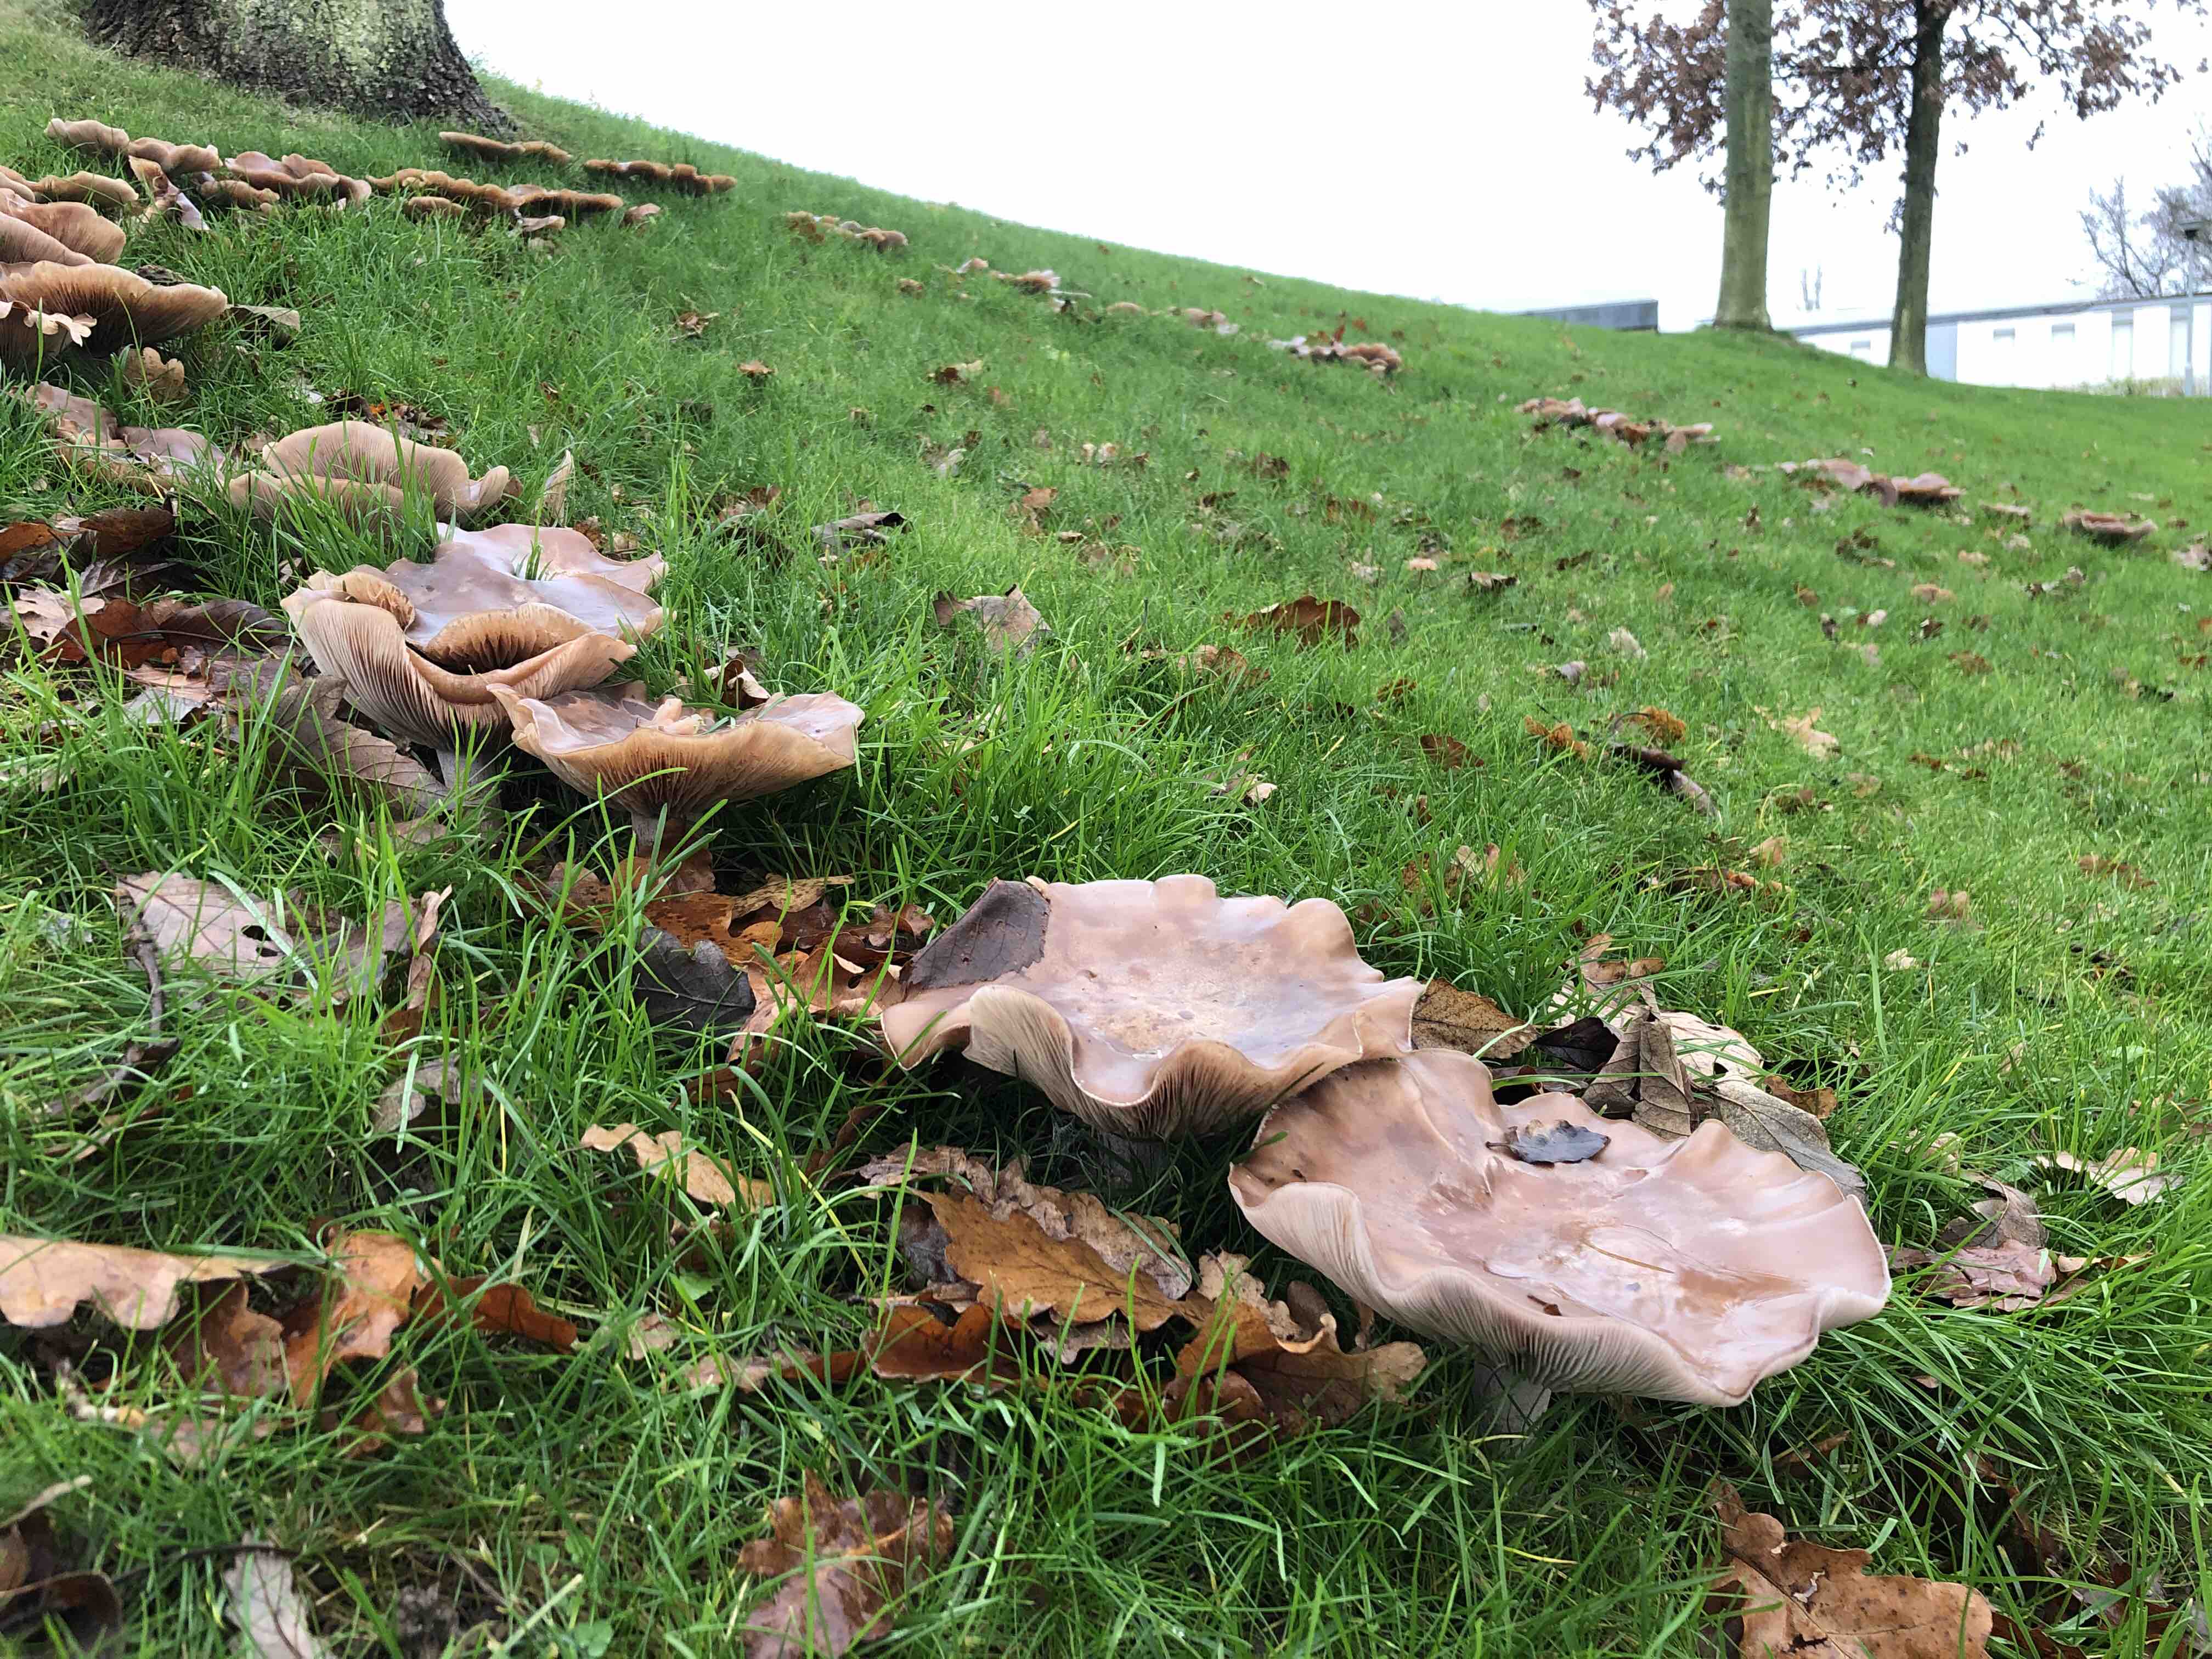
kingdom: Fungi
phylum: Basidiomycota
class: Agaricomycetes
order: Agaricales
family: Tricholomataceae
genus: Lepista
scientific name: Lepista nuda
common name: violet hekseringshat
